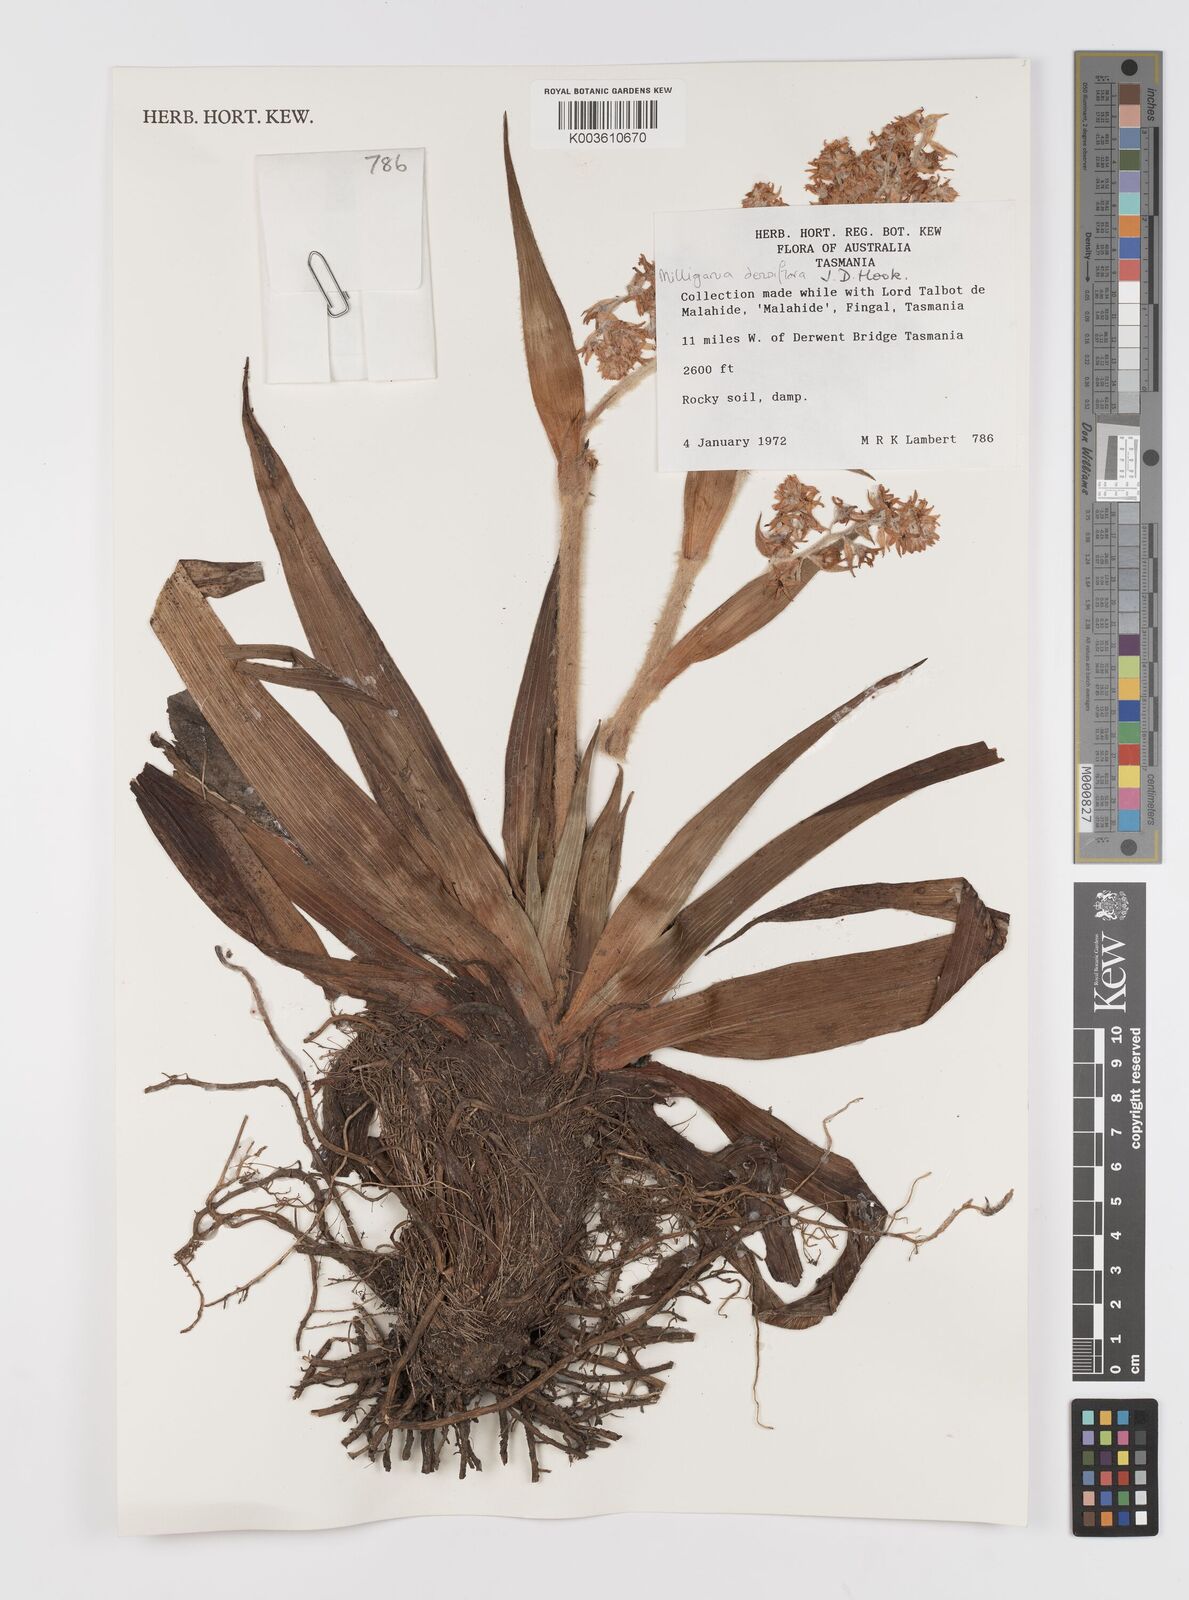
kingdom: Plantae
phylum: Tracheophyta
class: Liliopsida
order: Asparagales
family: Asteliaceae
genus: Milligania
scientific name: Milligania densiflora
